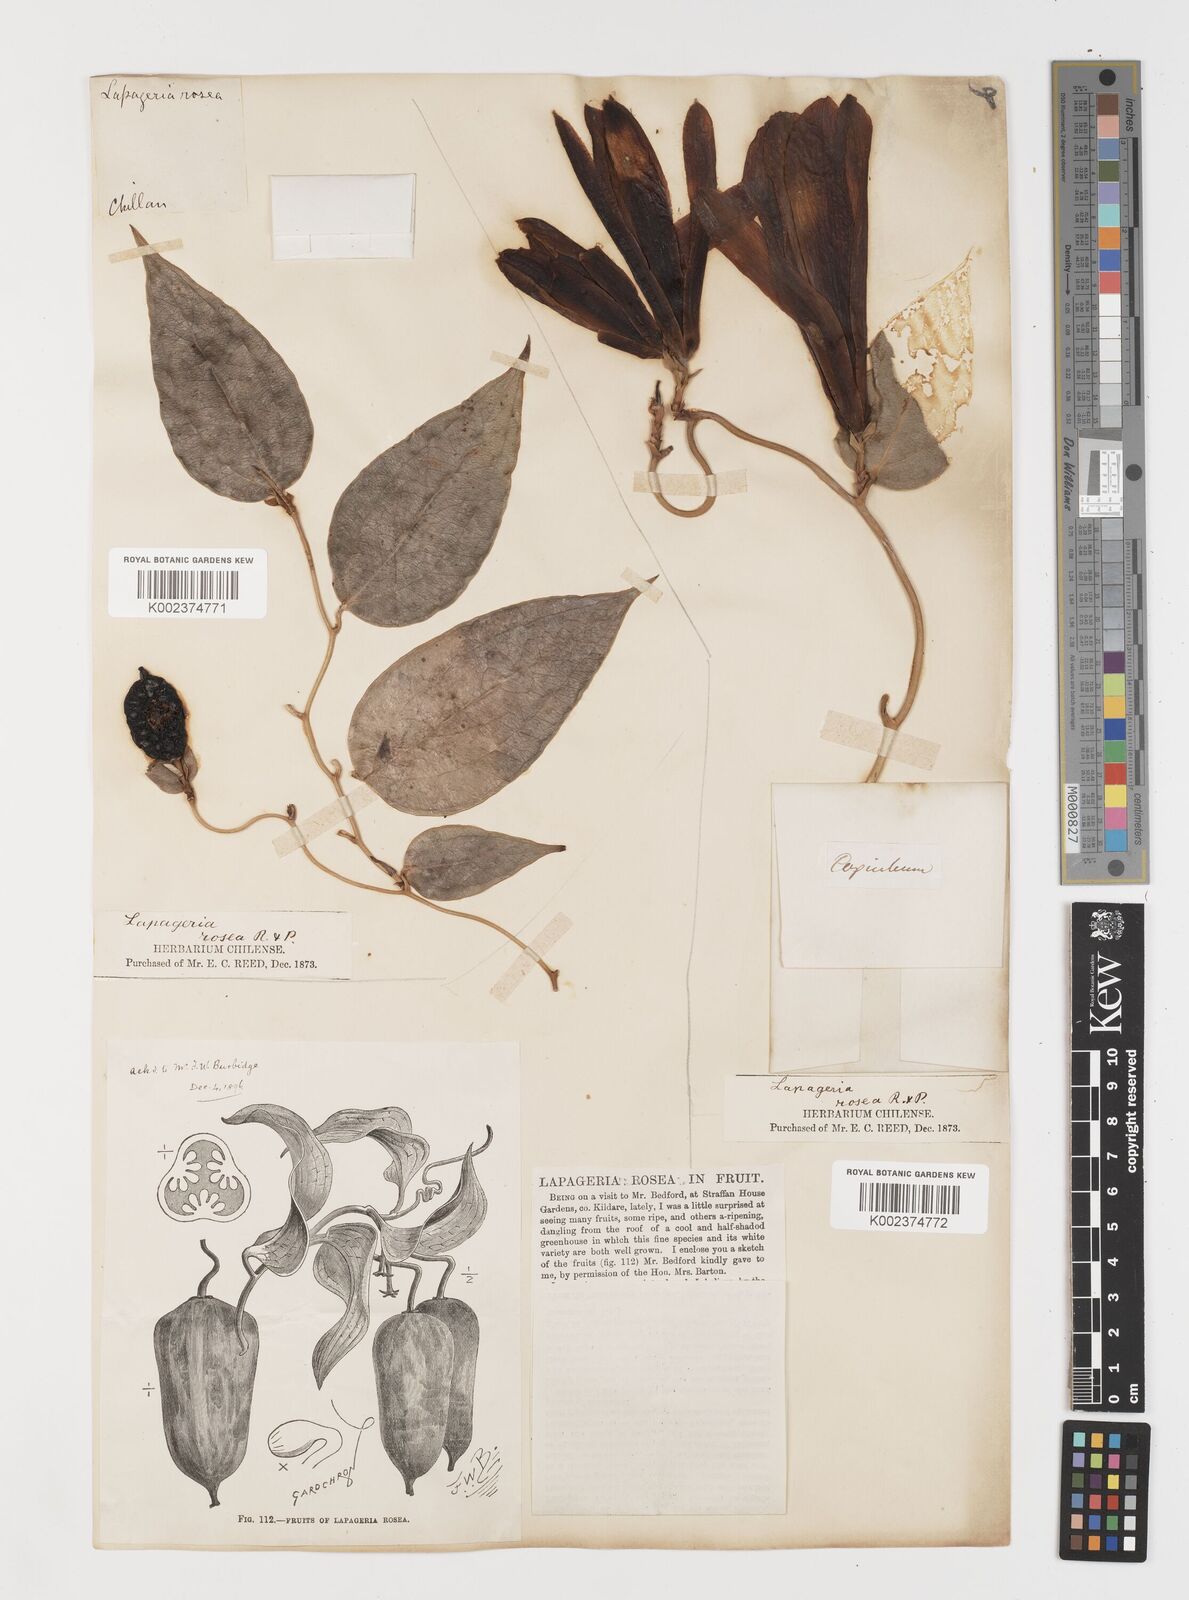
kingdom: Plantae
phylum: Tracheophyta
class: Liliopsida
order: Liliales
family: Philesiaceae
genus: Lapageria
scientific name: Lapageria rosea
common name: Chilean-bellflower
